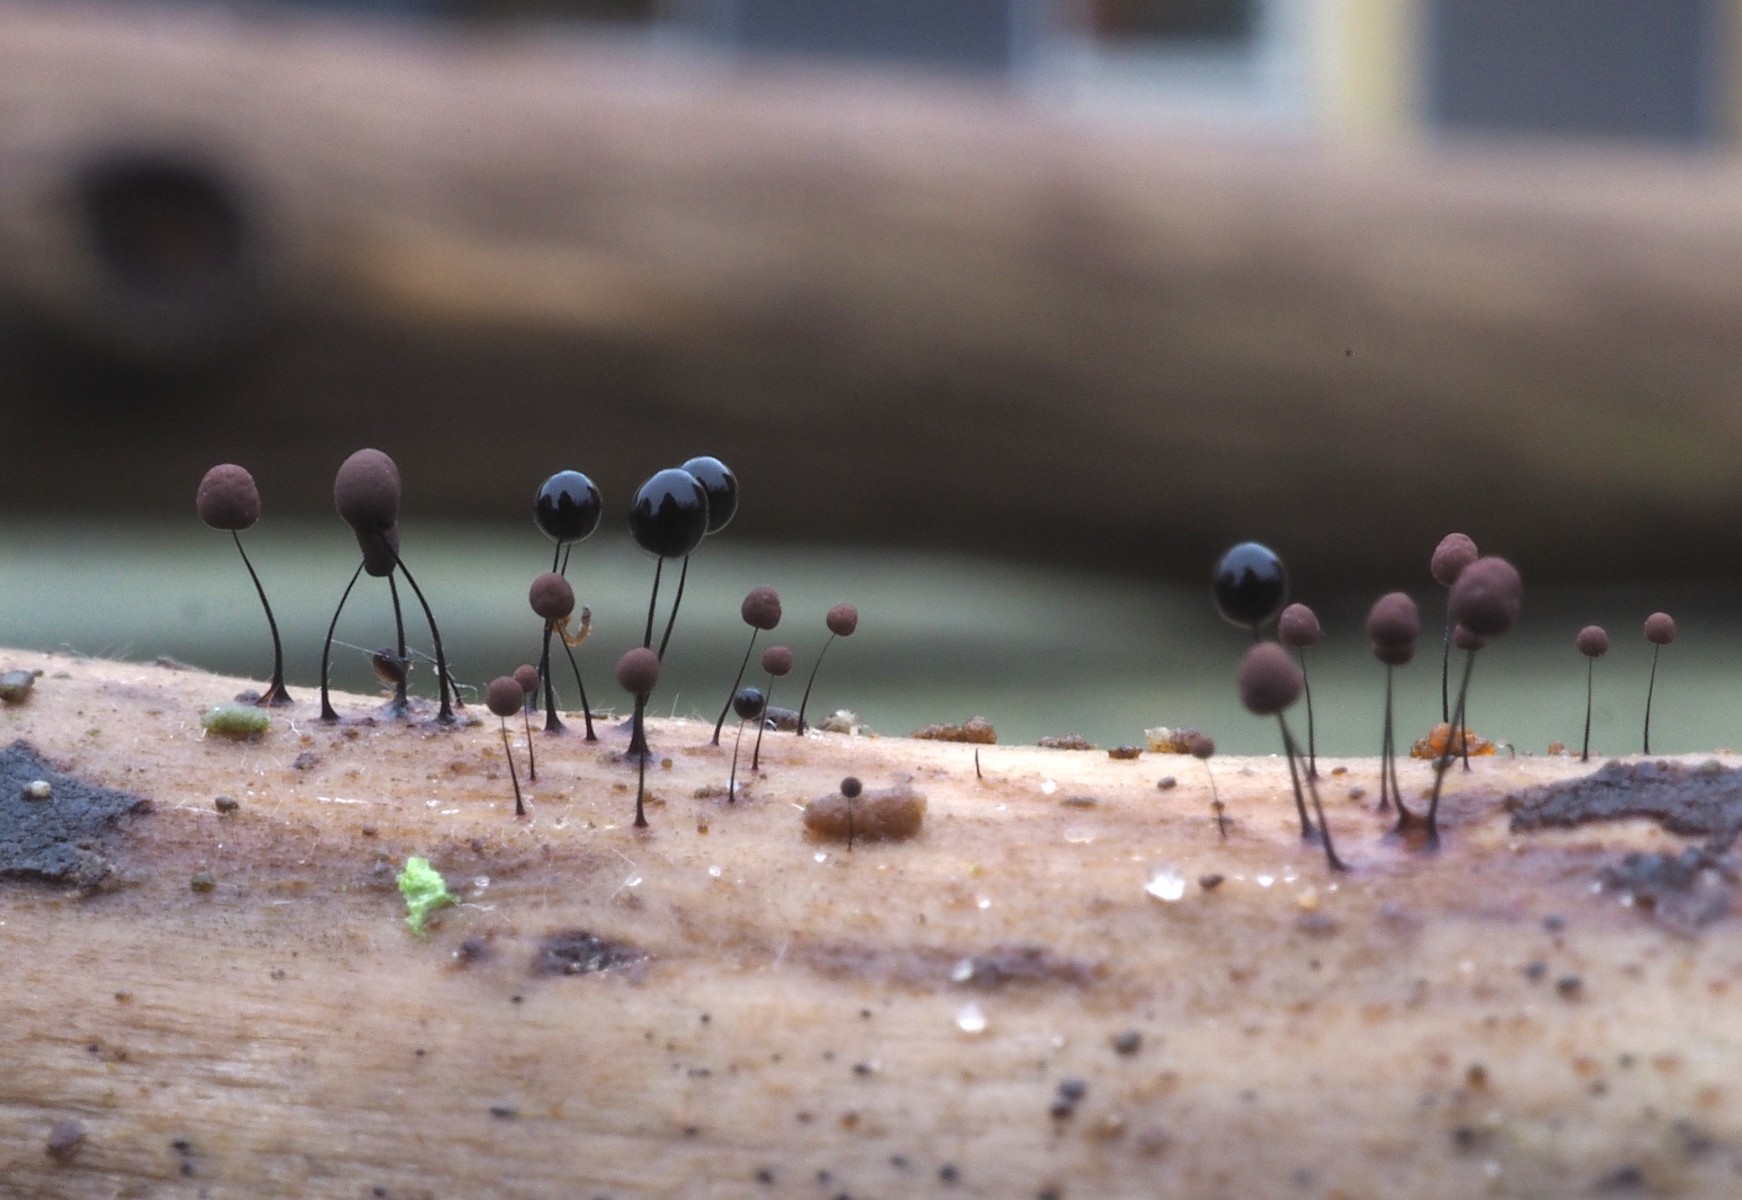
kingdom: Protozoa
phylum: Mycetozoa
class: Myxomycetes
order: Stemonitidales
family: Stemonitidaceae
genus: Comatricha
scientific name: Comatricha nigra
